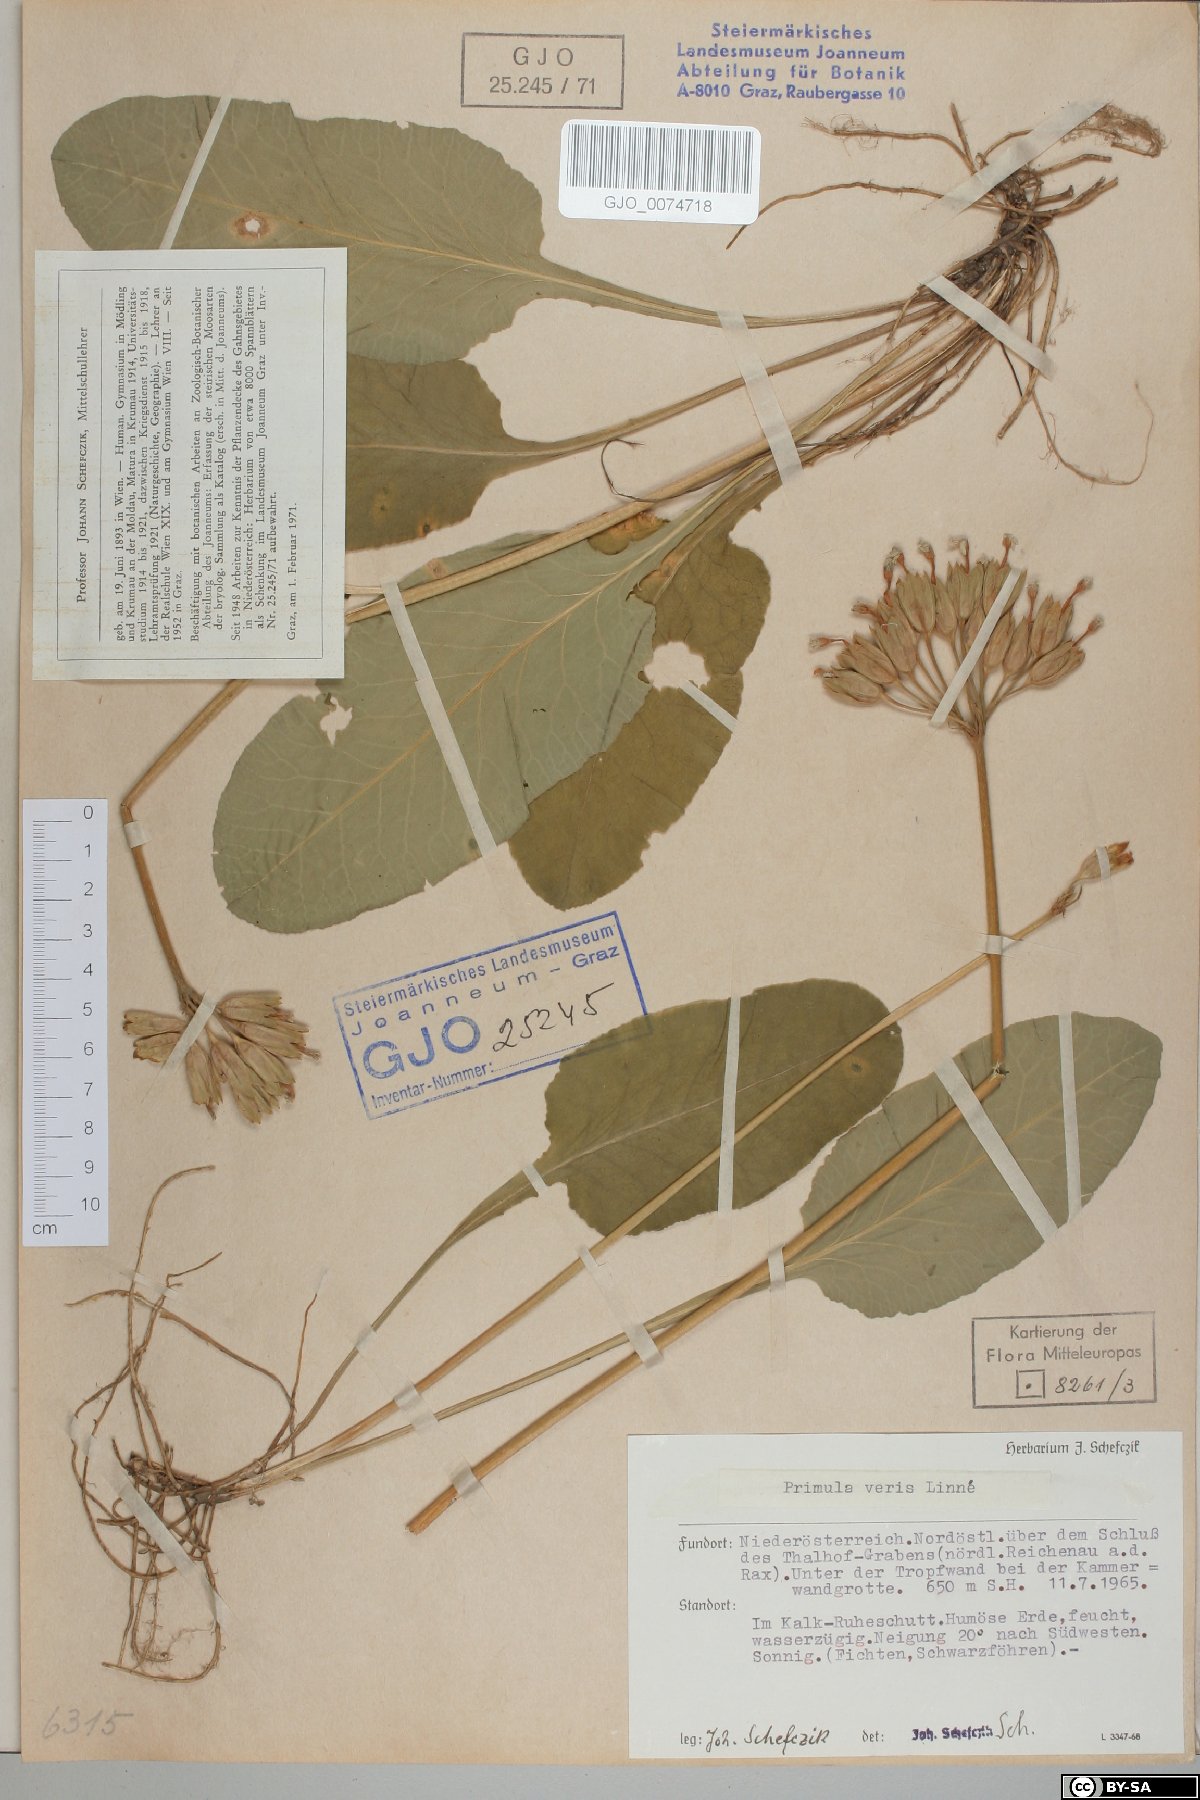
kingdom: Plantae
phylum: Tracheophyta
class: Magnoliopsida
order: Ericales
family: Primulaceae
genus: Primula
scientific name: Primula veris
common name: Cowslip
